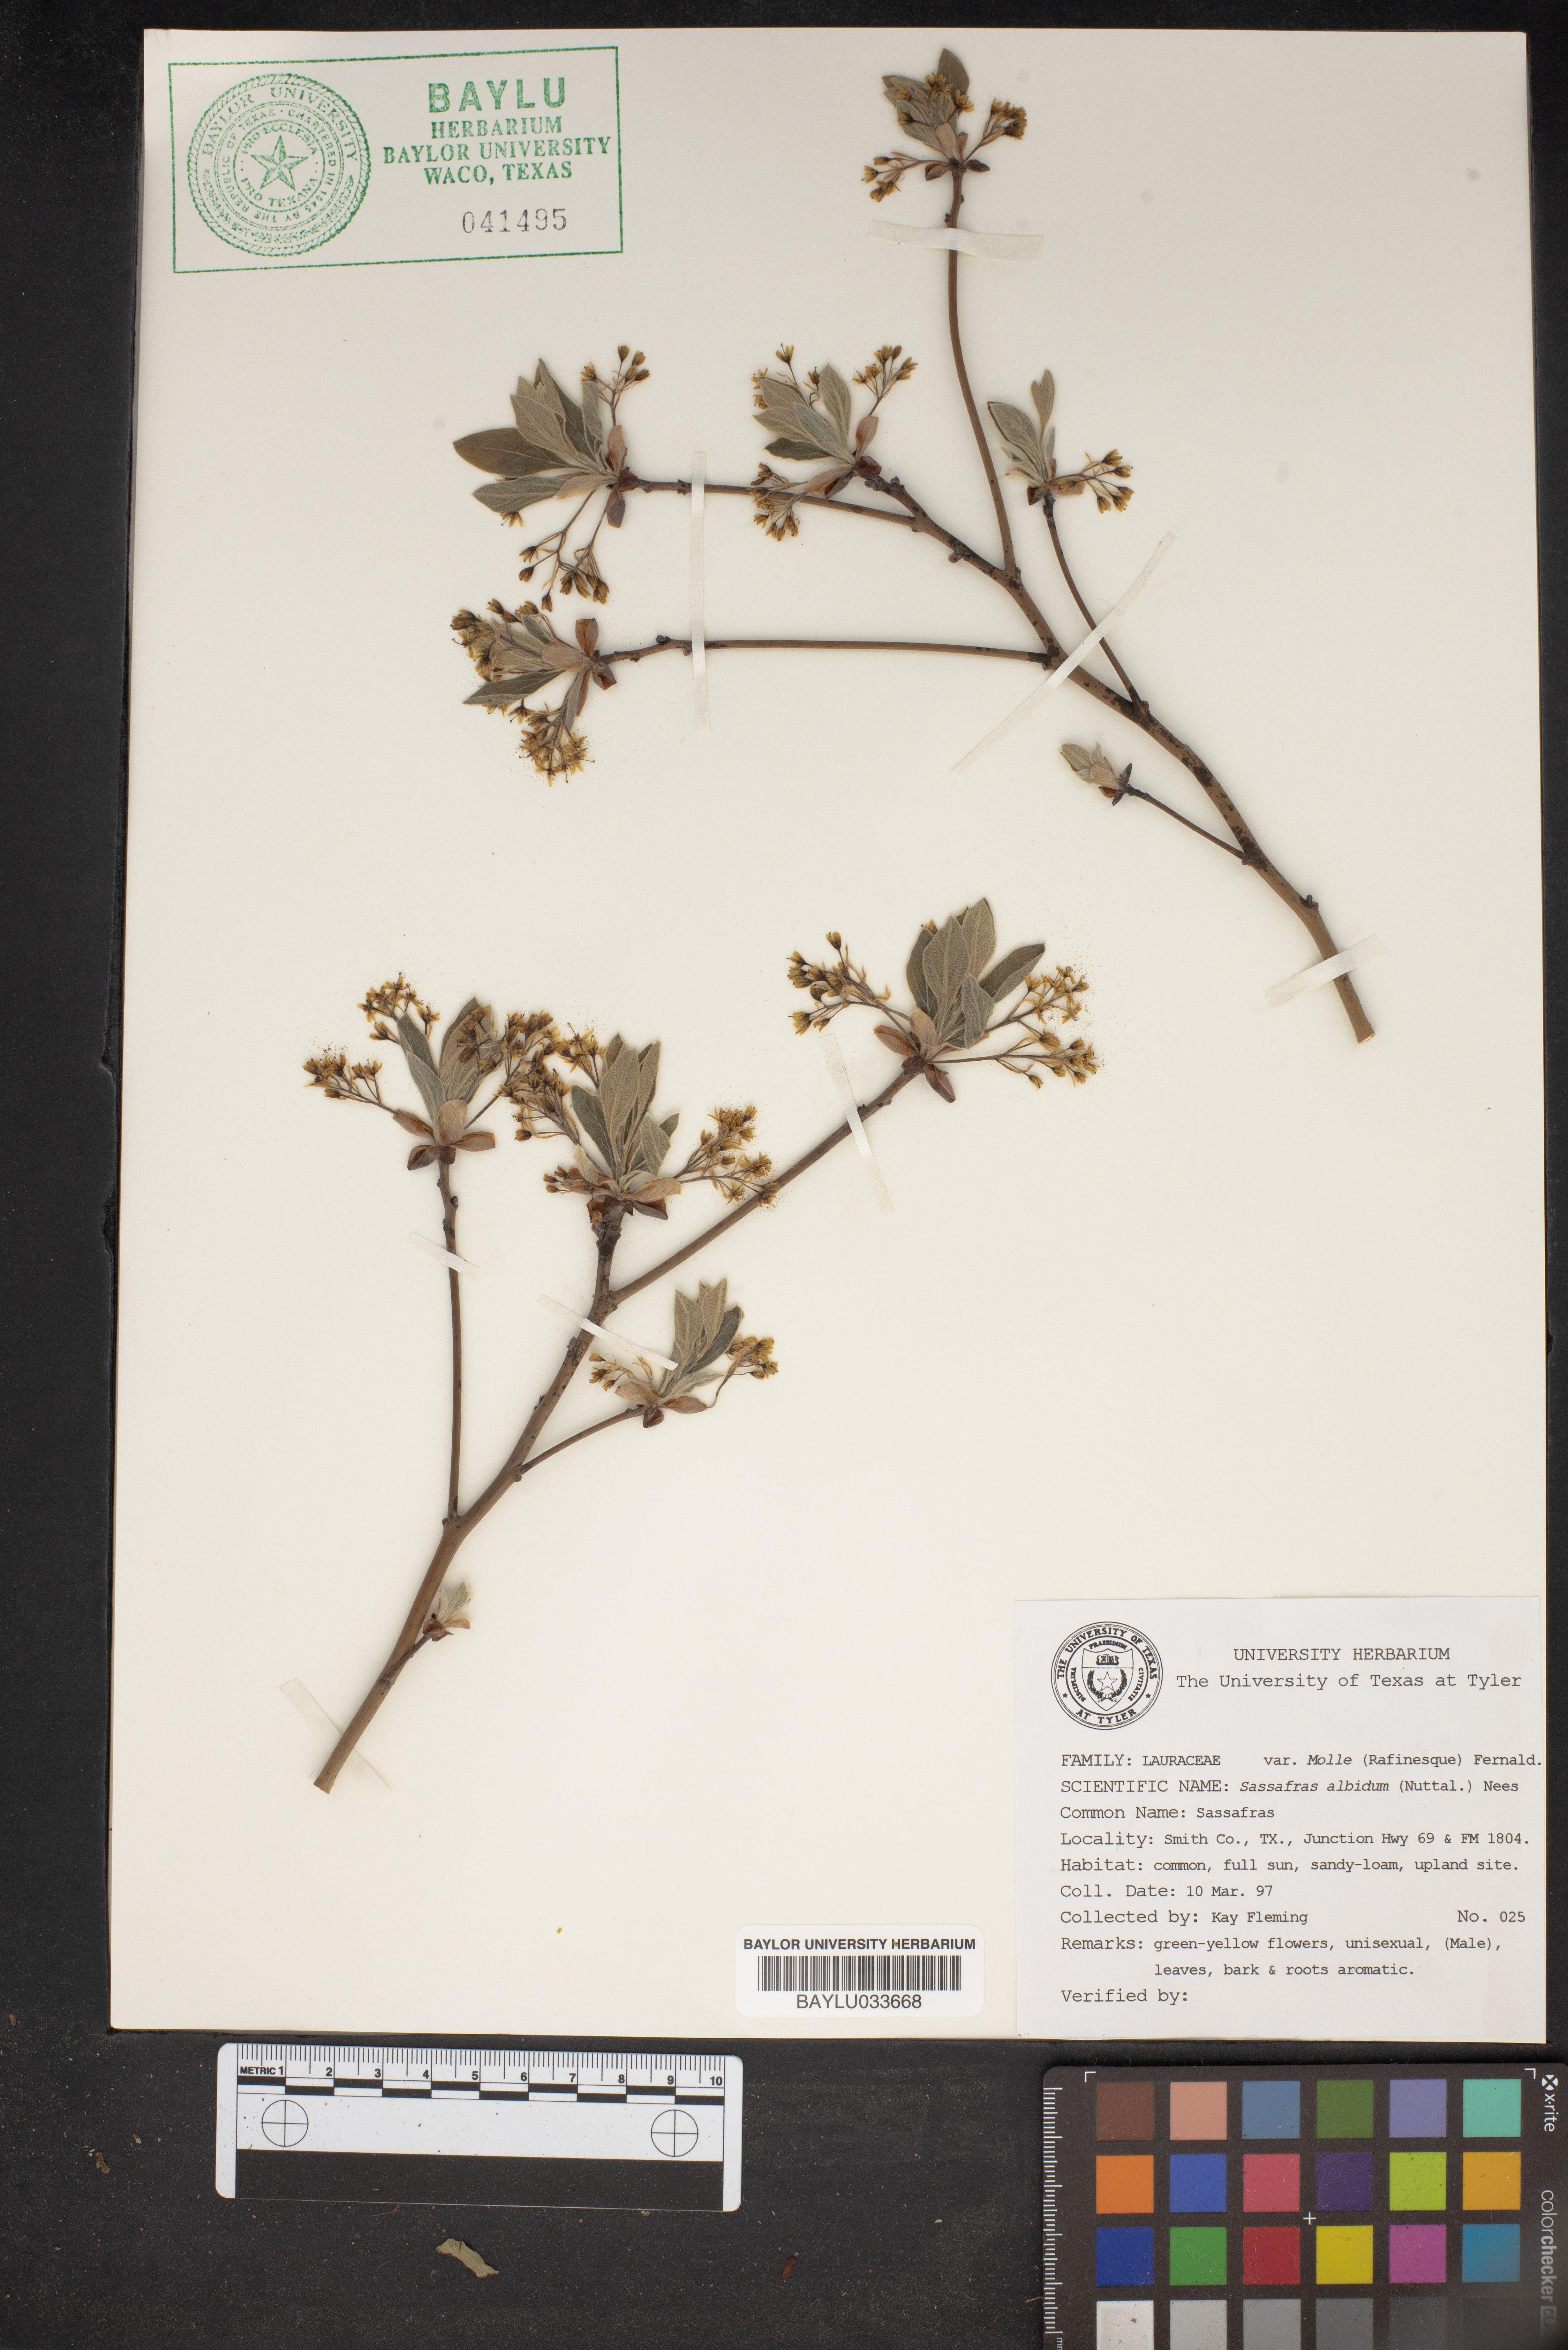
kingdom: Plantae
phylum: Tracheophyta
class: Magnoliopsida
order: Laurales
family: Lauraceae
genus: Sassafras
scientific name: Sassafras albidum
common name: Sassafras
